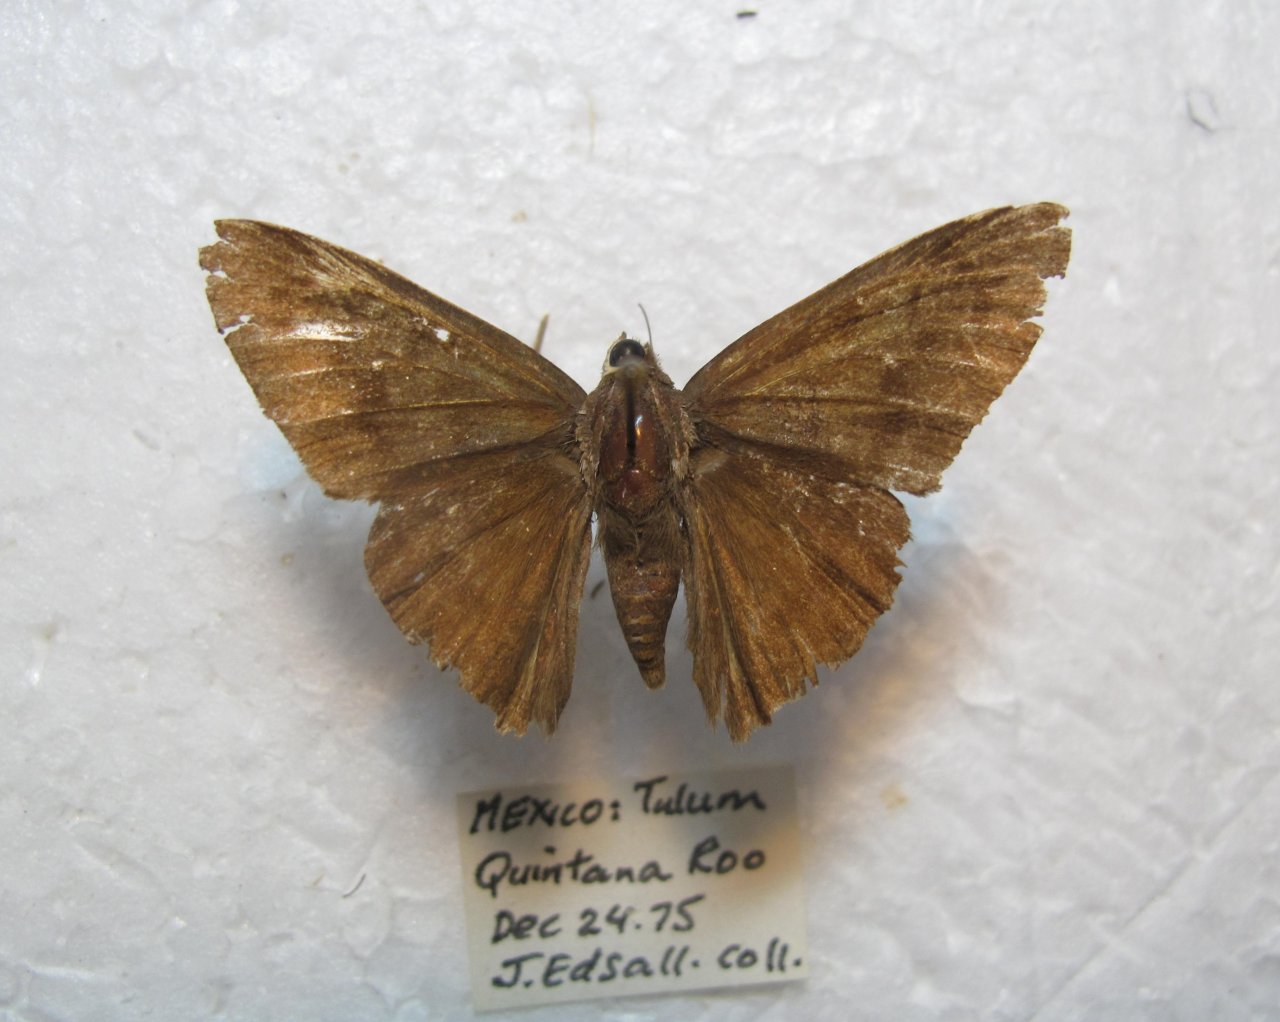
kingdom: Animalia
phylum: Arthropoda
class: Insecta
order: Lepidoptera
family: Hesperiidae
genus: Achalarus
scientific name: Achalarus jalapus
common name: Jalapus Cloudywing
